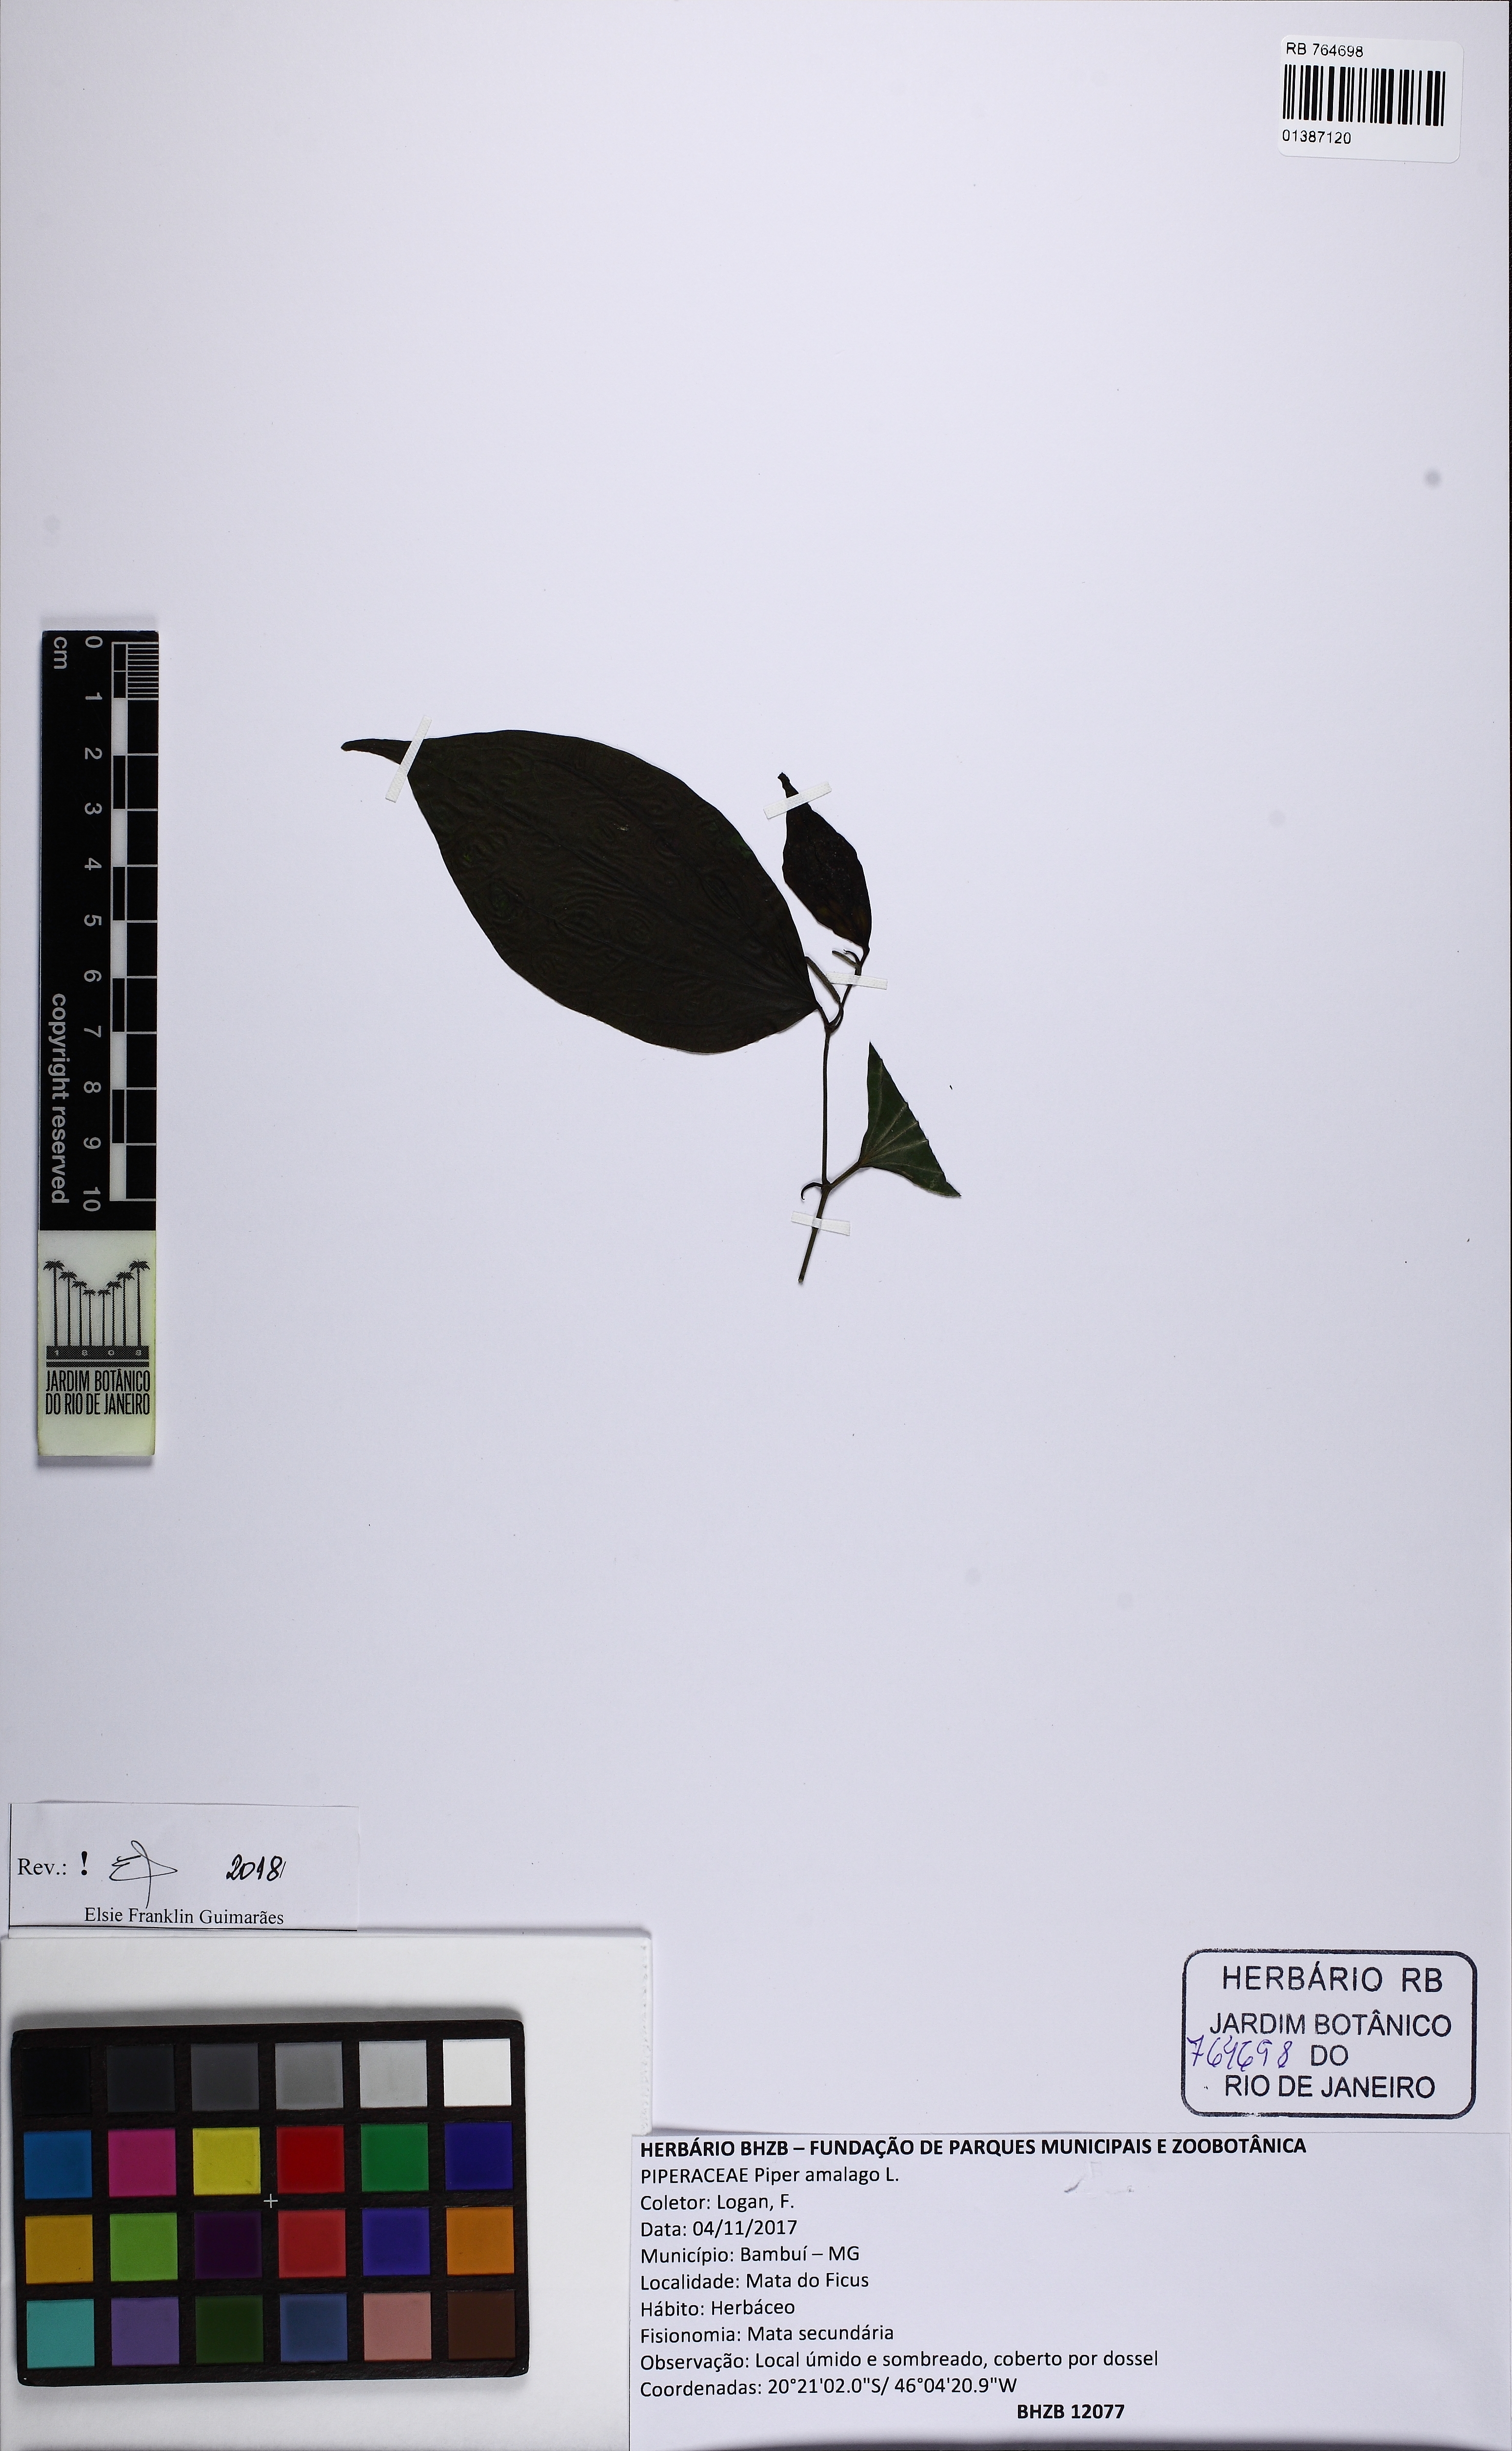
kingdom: Plantae
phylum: Tracheophyta
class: Magnoliopsida
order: Piperales
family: Piperaceae
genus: Piper
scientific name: Piper amalago
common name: Pepper-elder
